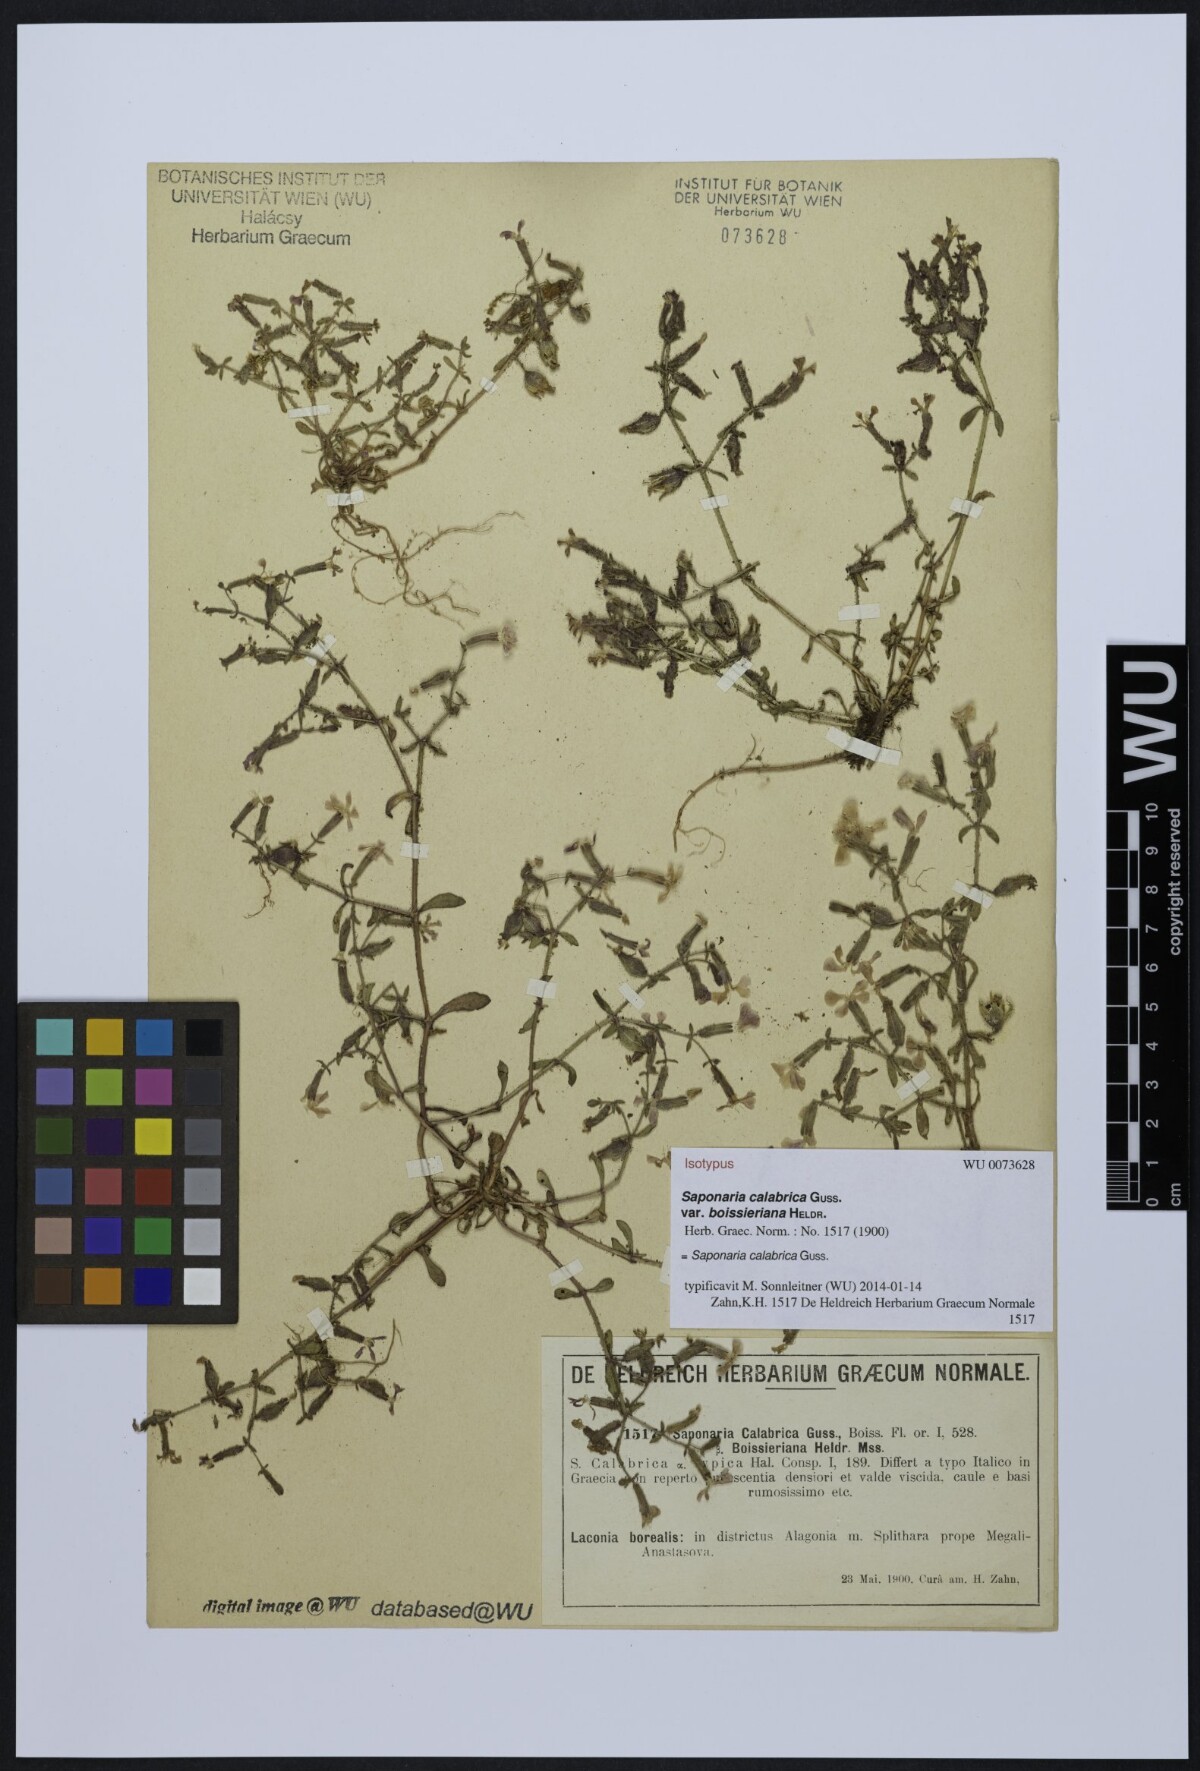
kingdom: Plantae
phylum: Tracheophyta
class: Magnoliopsida
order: Caryophyllales
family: Caryophyllaceae
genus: Saponaria
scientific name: Saponaria calabrica
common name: Adriatic soapwort
